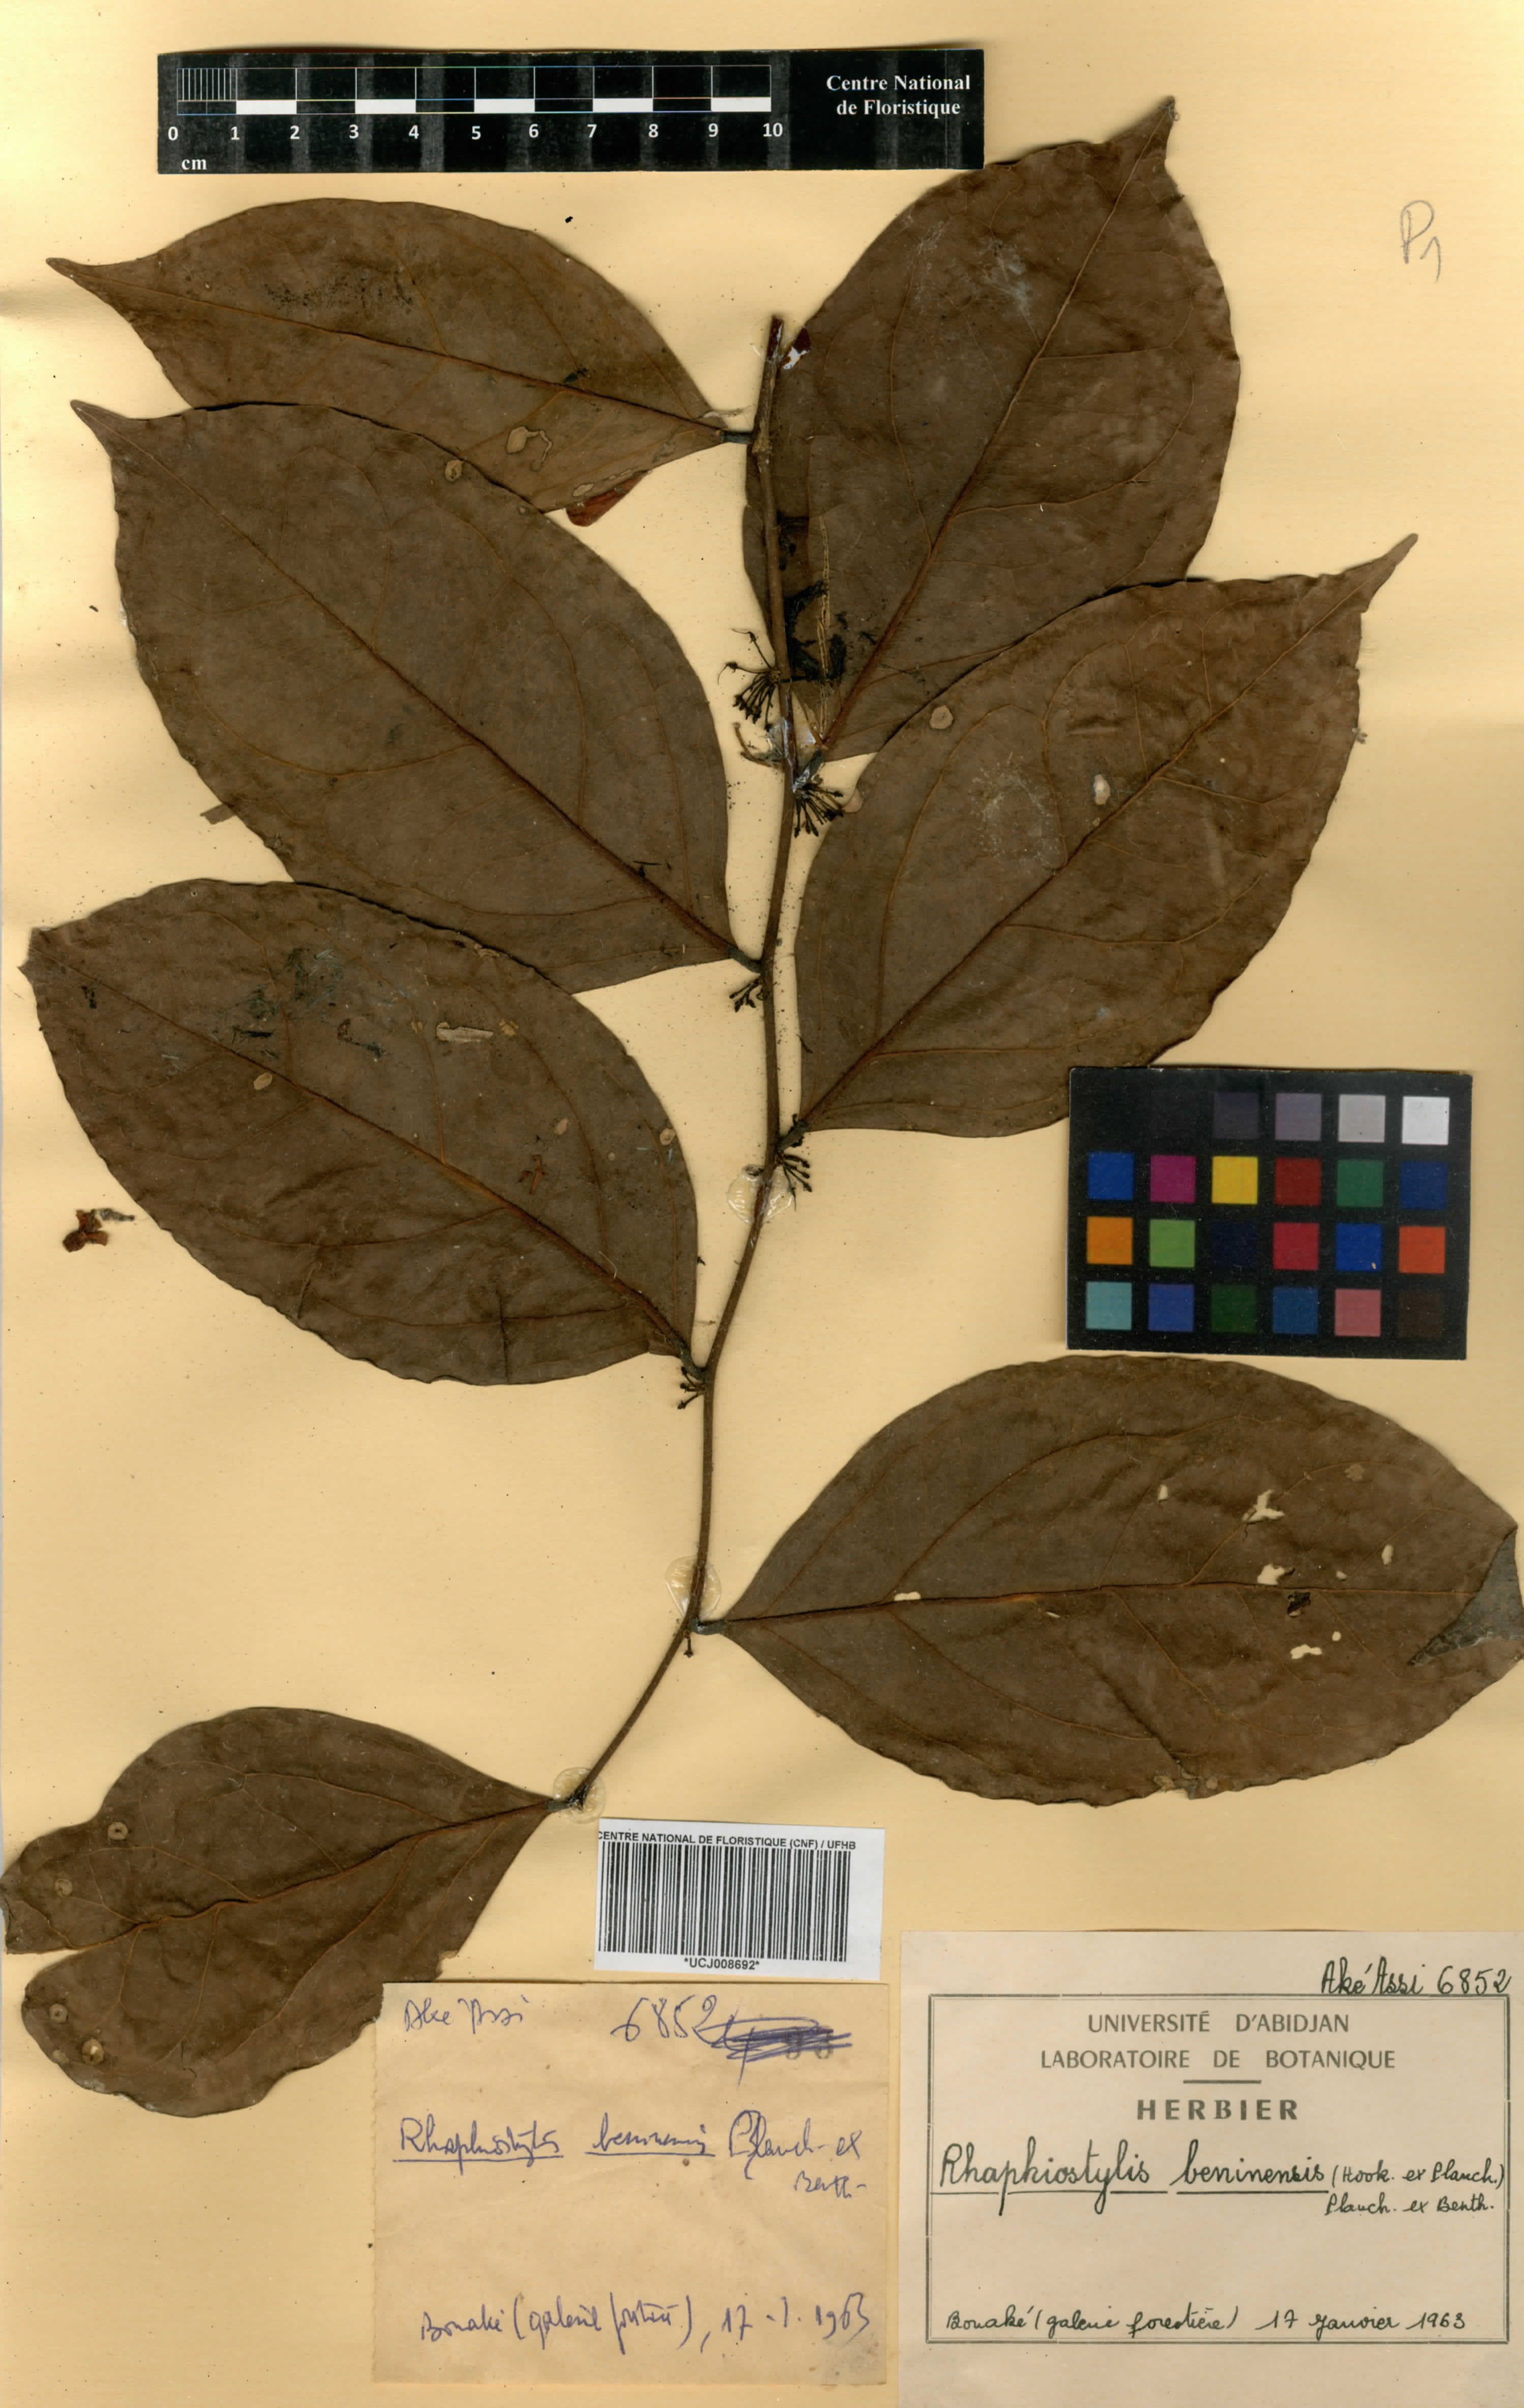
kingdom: Plantae
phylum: Tracheophyta
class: Magnoliopsida
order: Metteniusales
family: Metteniusaceae
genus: Rhaphiostylis
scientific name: Rhaphiostylis beninensis
